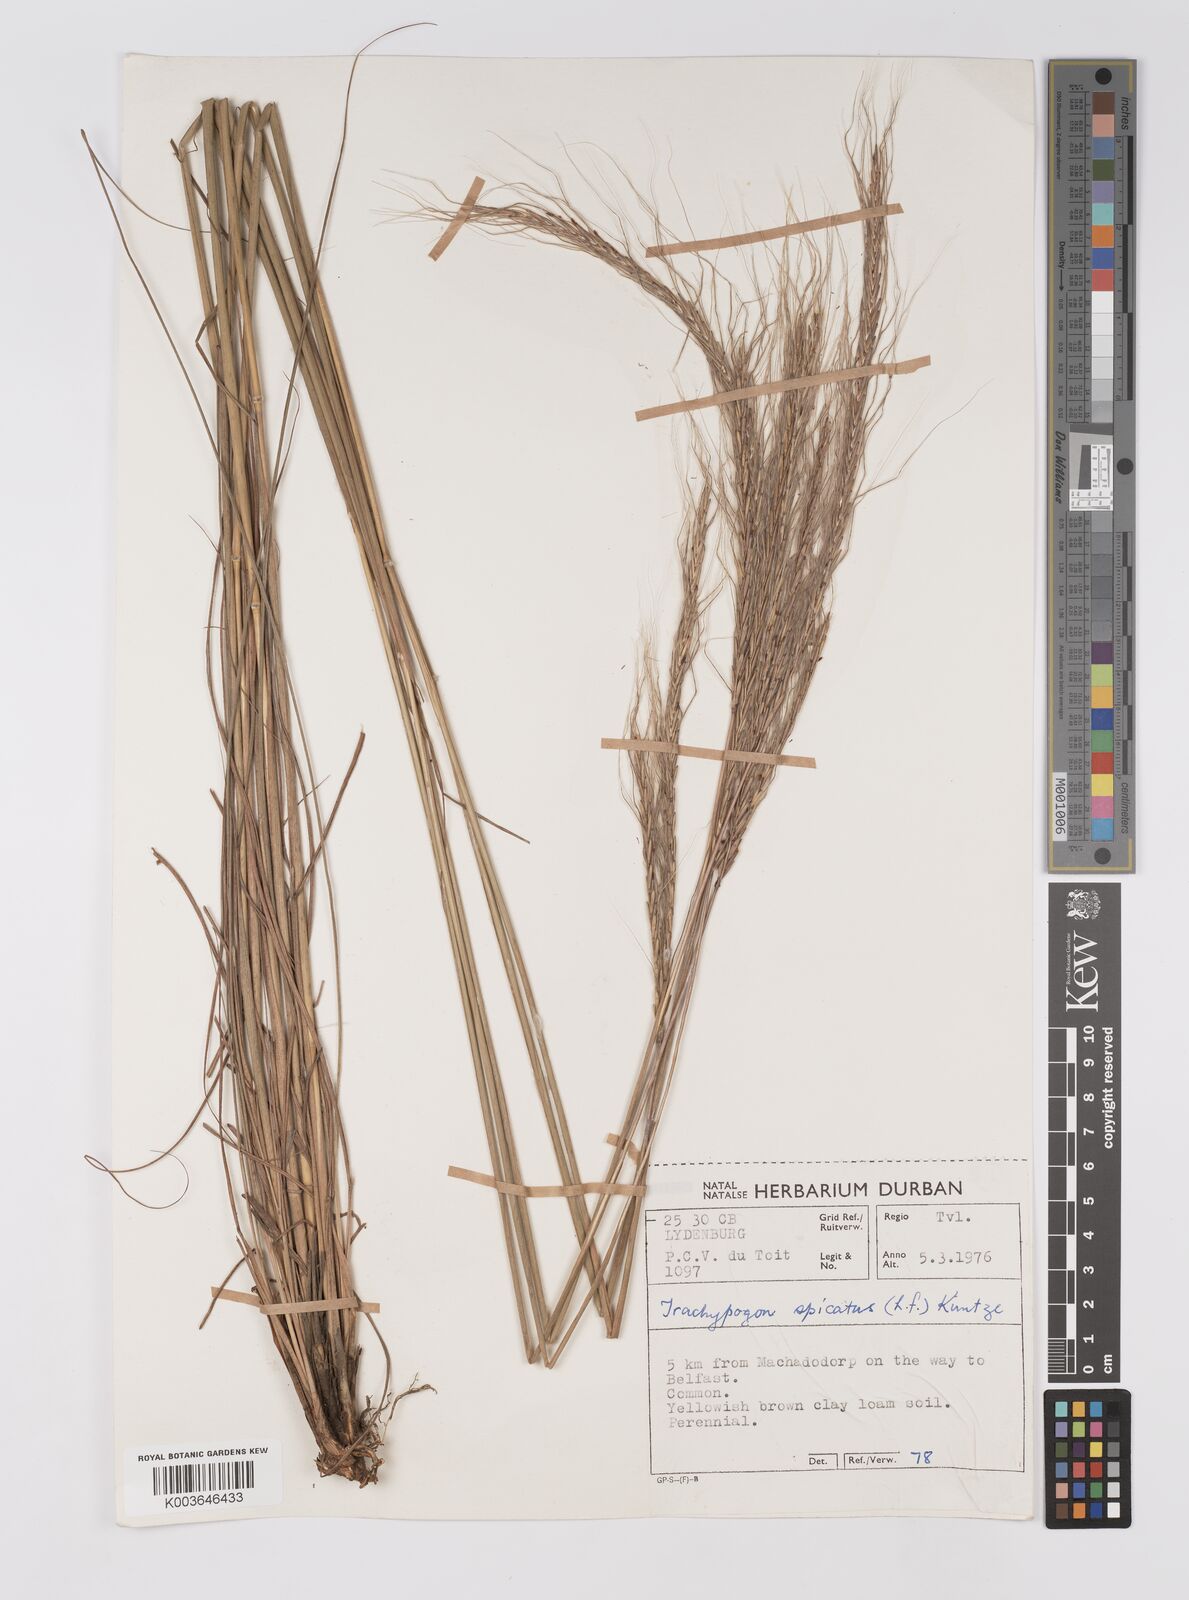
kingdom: Plantae
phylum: Tracheophyta
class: Liliopsida
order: Poales
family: Poaceae
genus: Trachypogon
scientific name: Trachypogon spicatus
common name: Crinkle-awn
